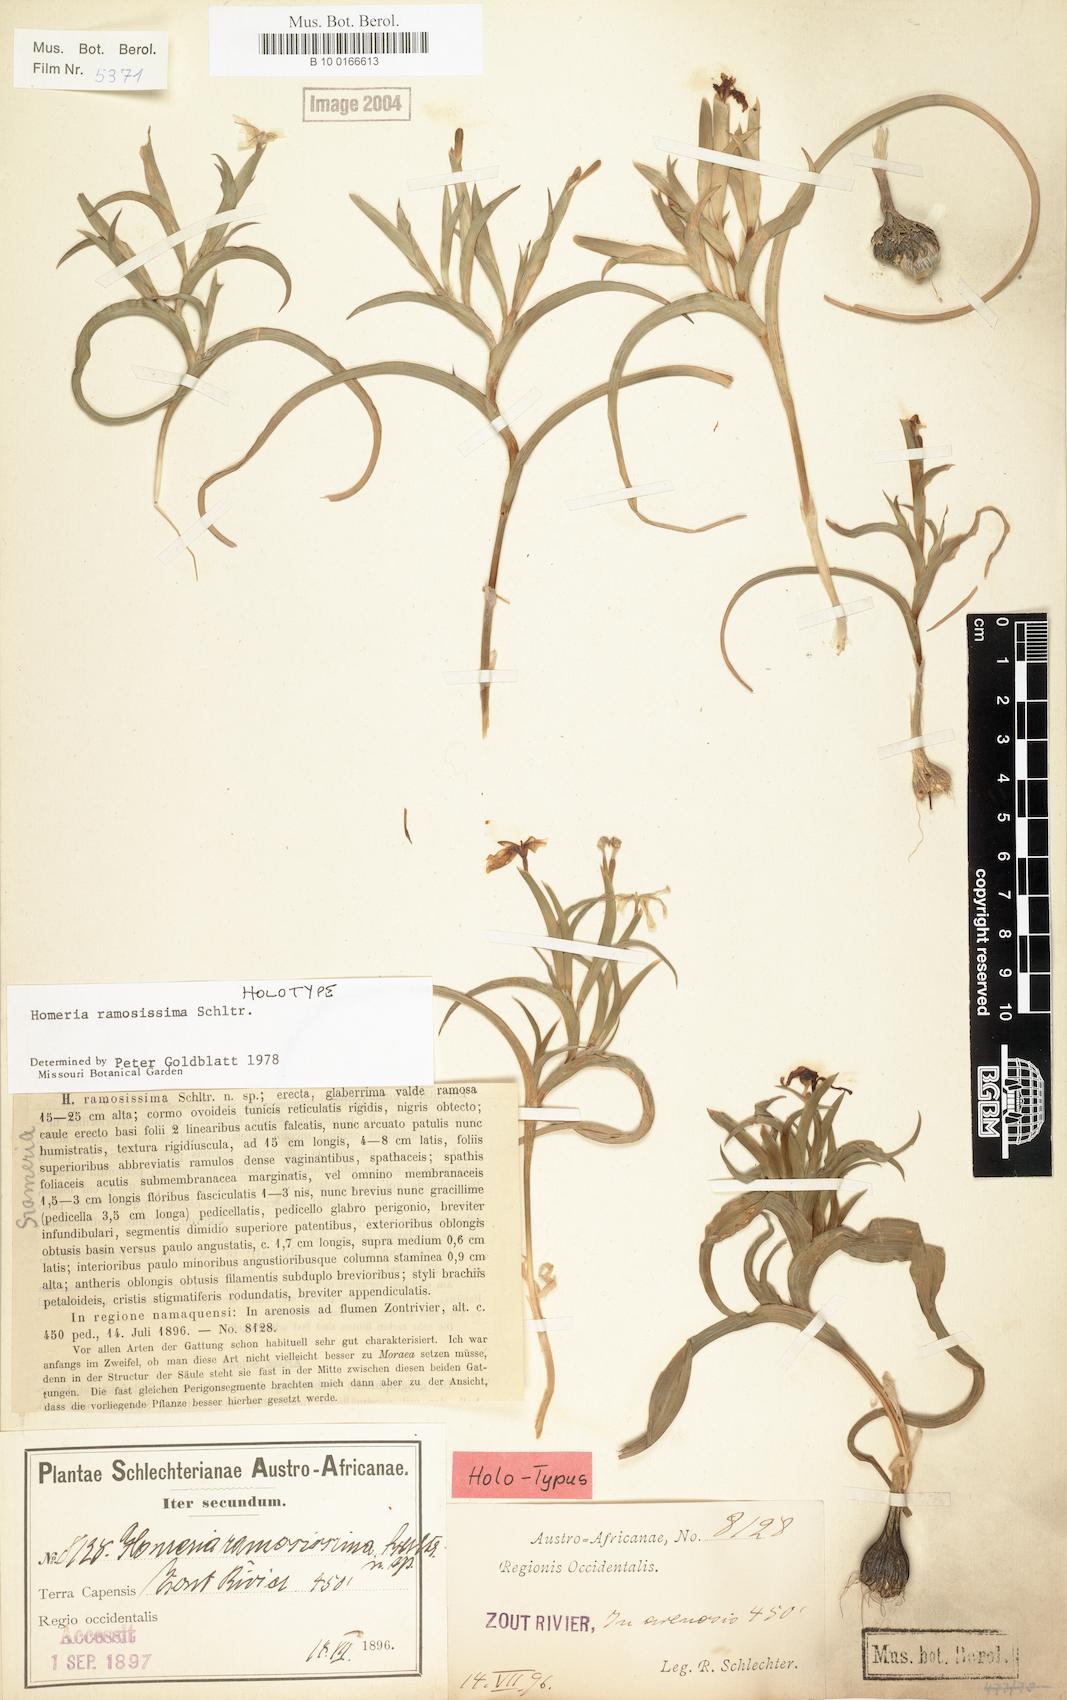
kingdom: Plantae
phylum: Tracheophyta
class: Liliopsida
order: Asparagales
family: Iridaceae
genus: Moraea
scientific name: Moraea knersvlaktensis
